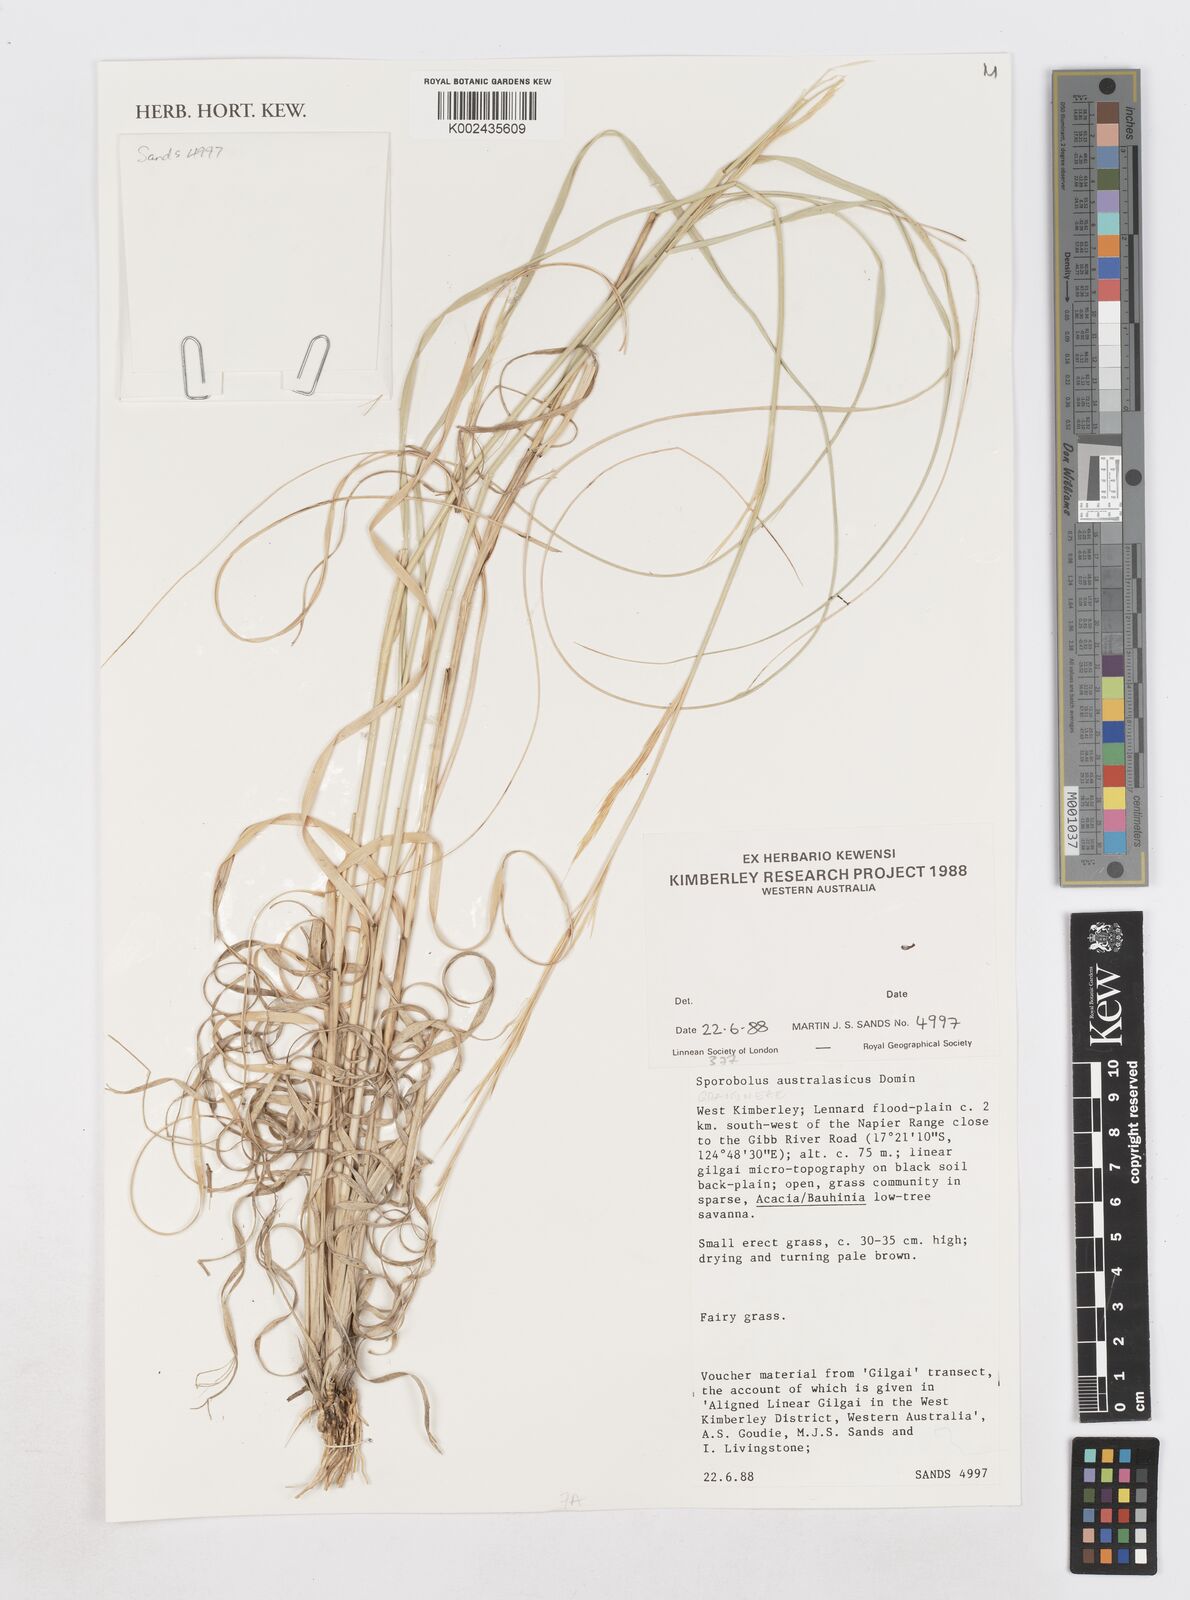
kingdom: Plantae
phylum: Tracheophyta
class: Liliopsida
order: Poales
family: Poaceae
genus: Sporobolus
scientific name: Sporobolus
